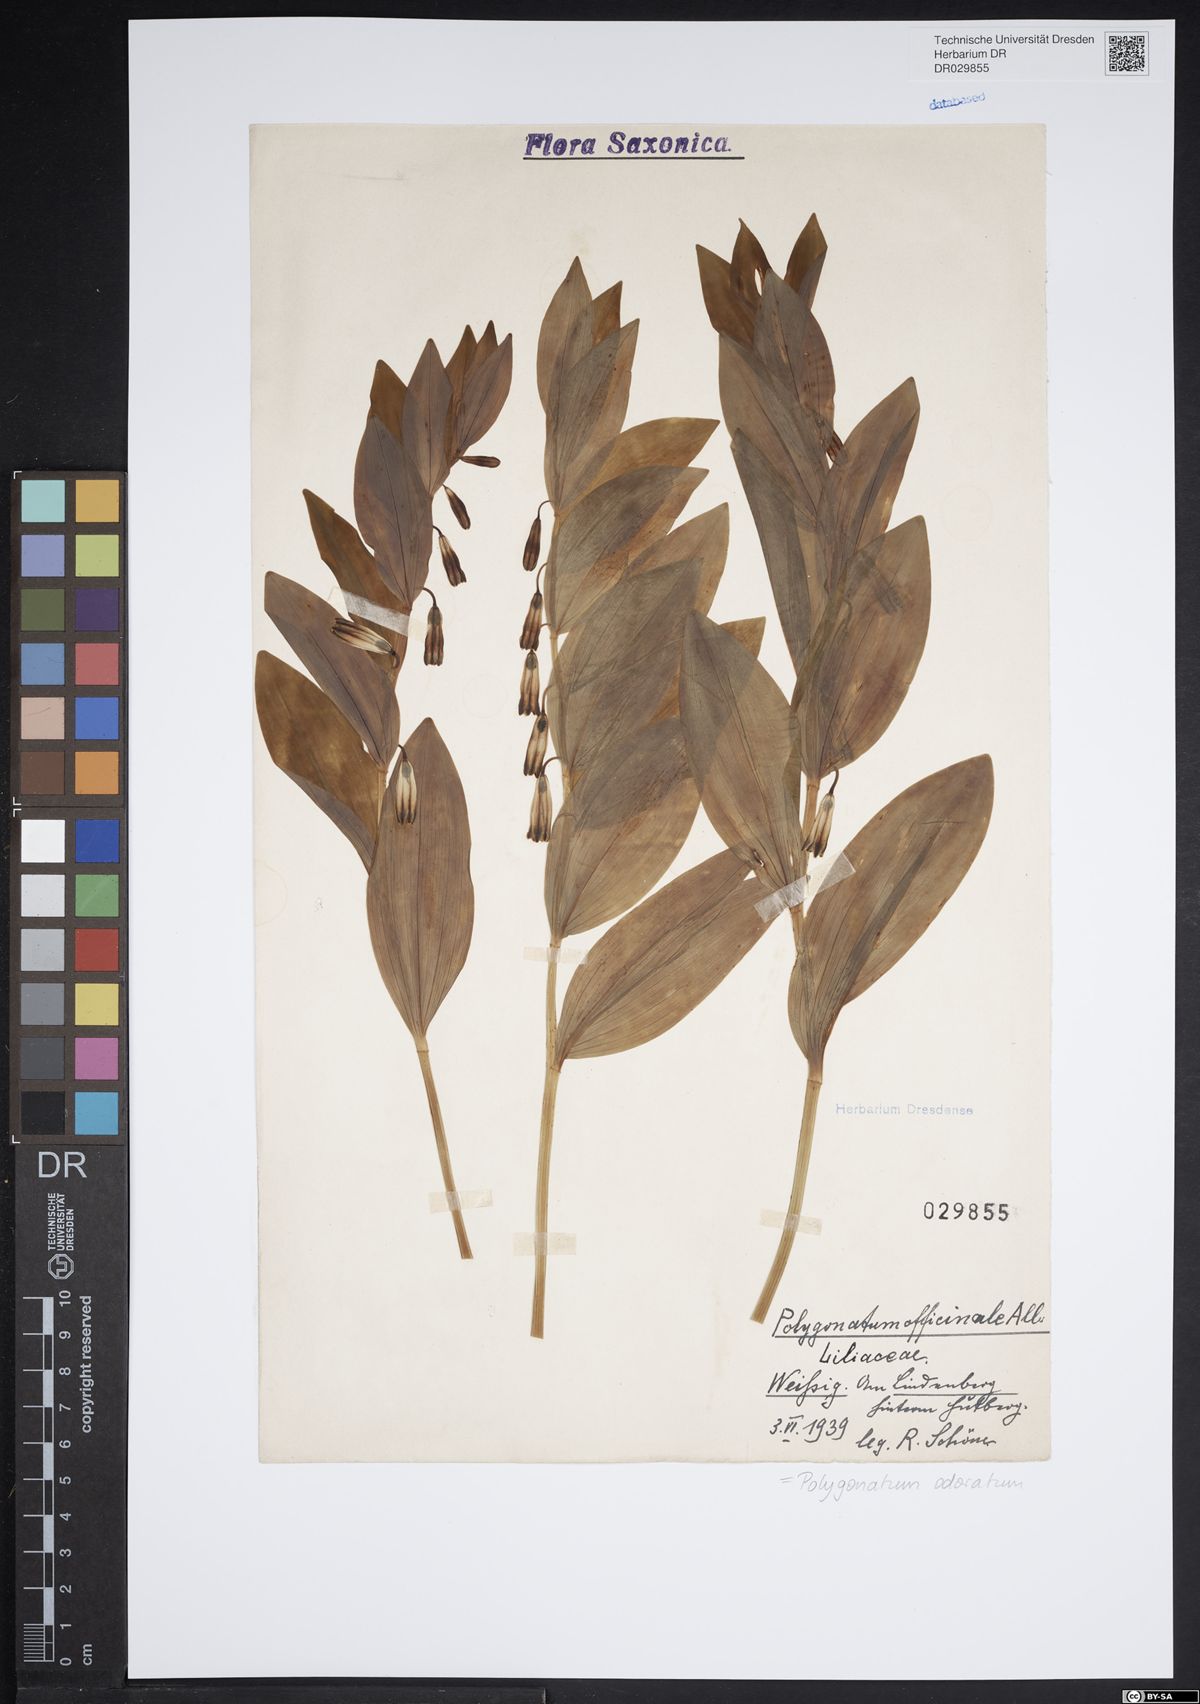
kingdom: Plantae
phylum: Tracheophyta
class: Liliopsida
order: Asparagales
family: Asparagaceae
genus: Polygonatum
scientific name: Polygonatum odoratum
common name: Angular solomon's-seal
